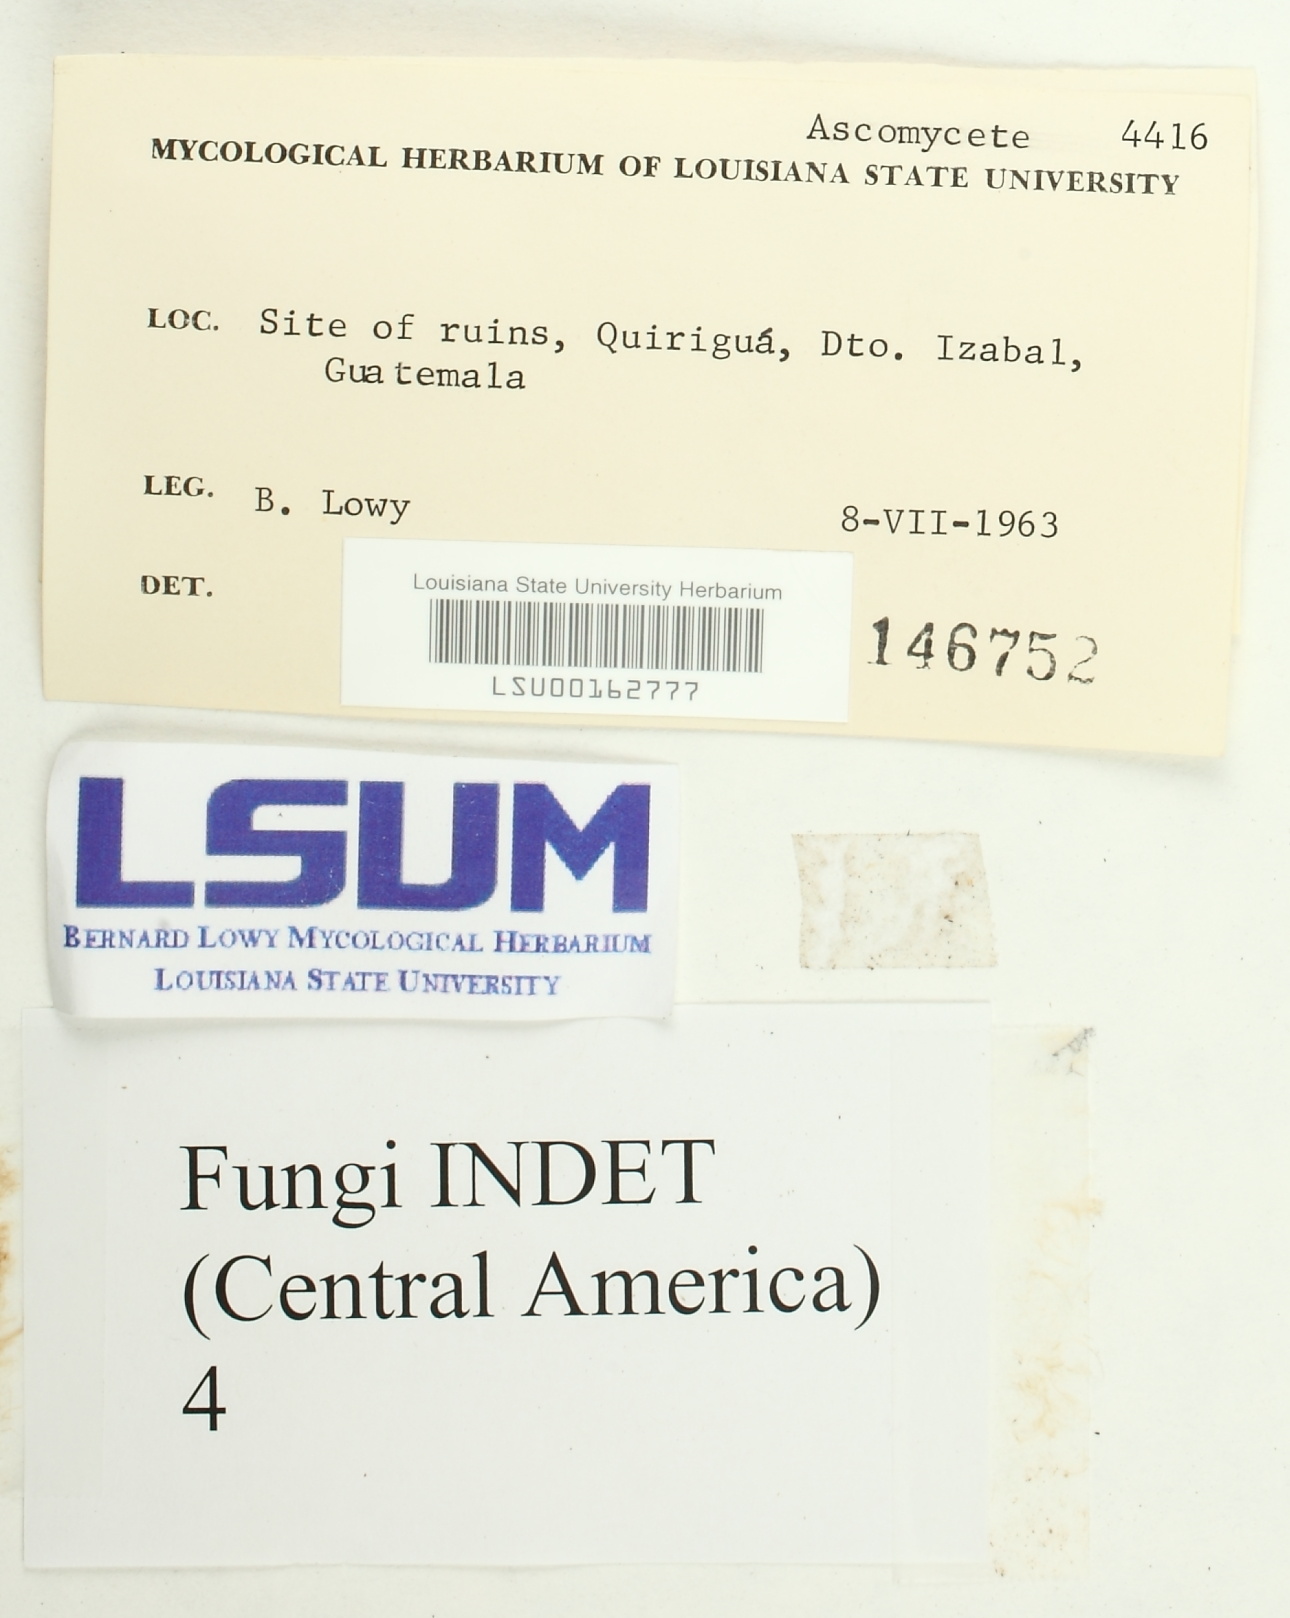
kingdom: Fungi
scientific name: Fungi
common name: Fungi
